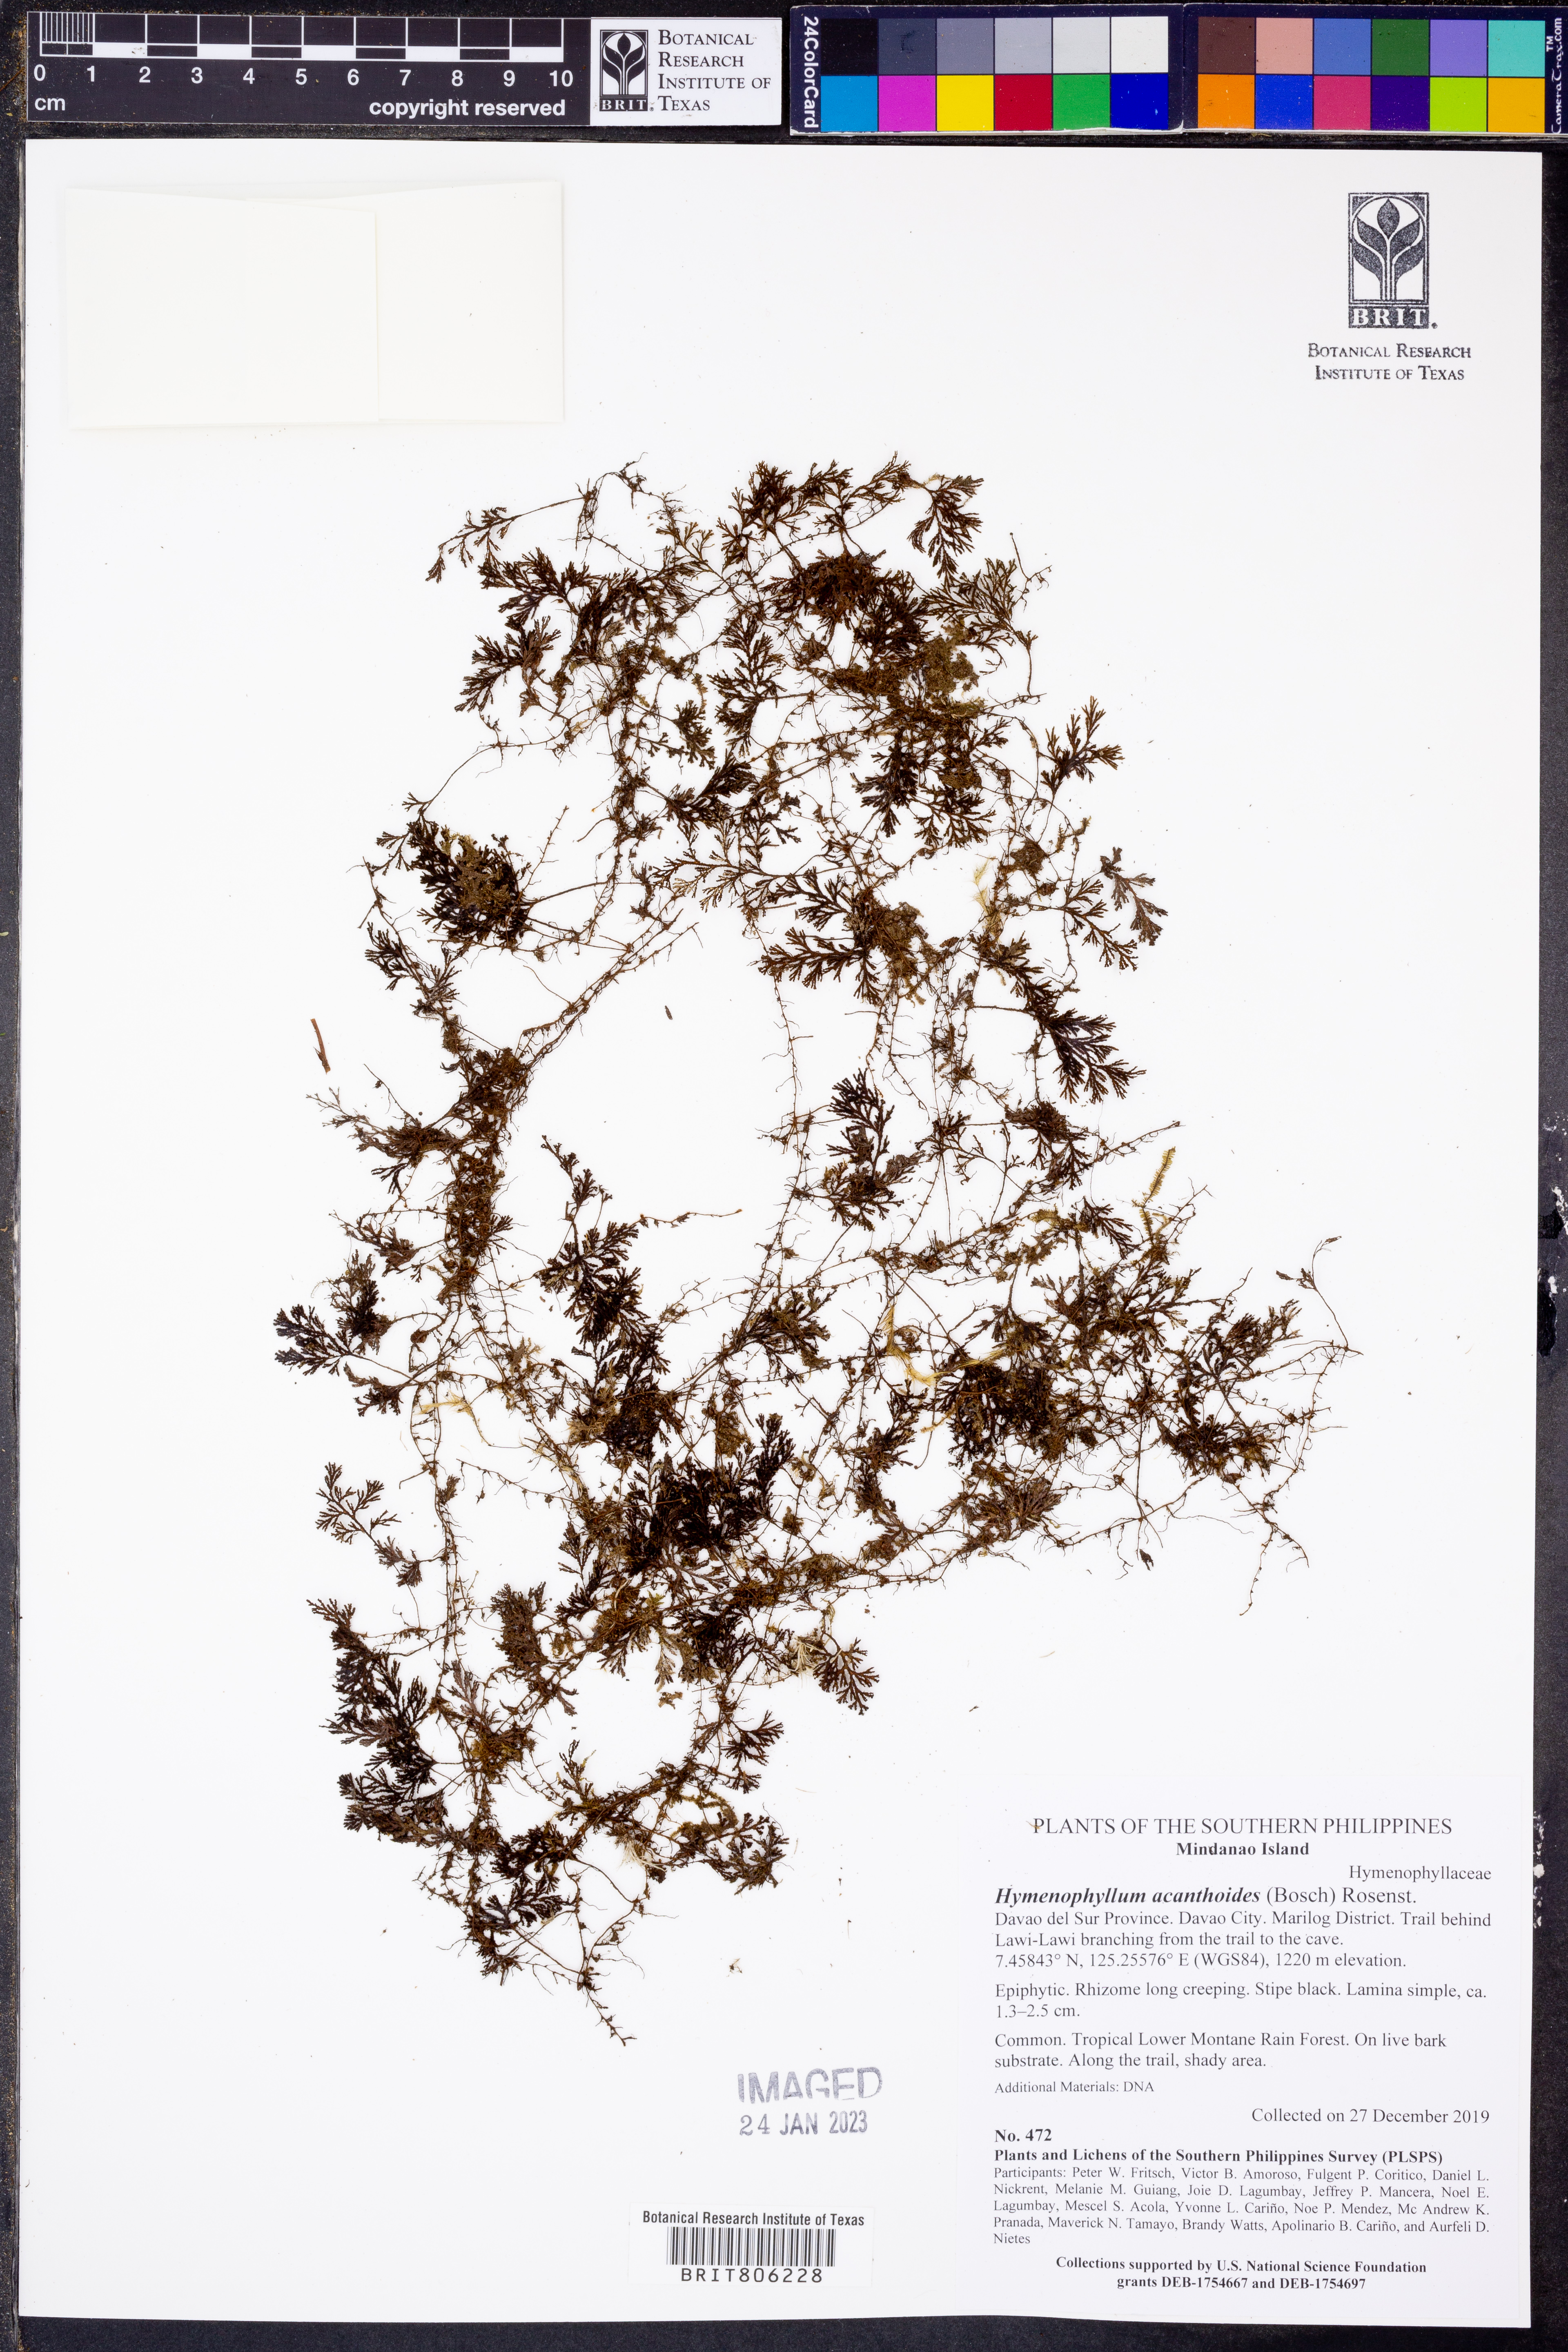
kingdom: Plantae
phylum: Tracheophyta
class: Polypodiopsida
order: Hymenophyllales
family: Hymenophyllaceae
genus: Hymenophyllum
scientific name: Hymenophyllum acanthoides
